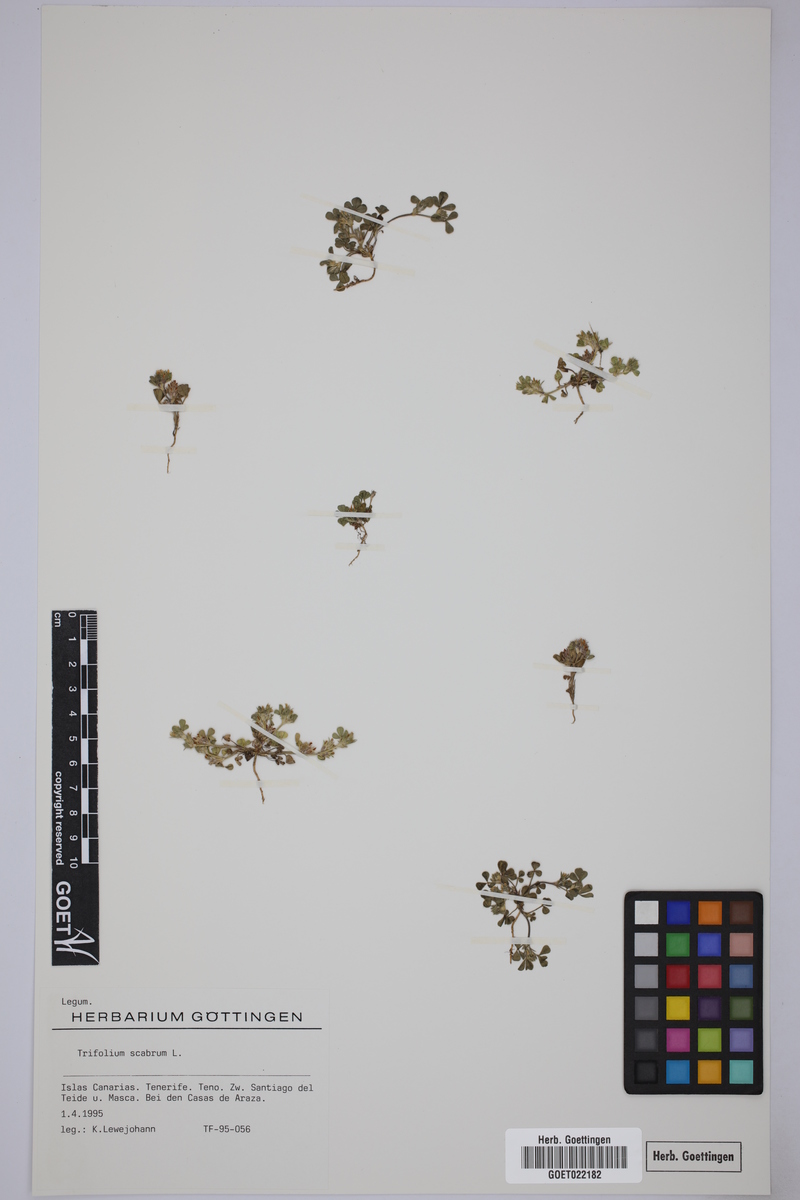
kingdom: Plantae
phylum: Tracheophyta
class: Magnoliopsida
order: Fabales
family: Fabaceae
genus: Trifolium
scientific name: Trifolium scabrum
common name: Rough clover
